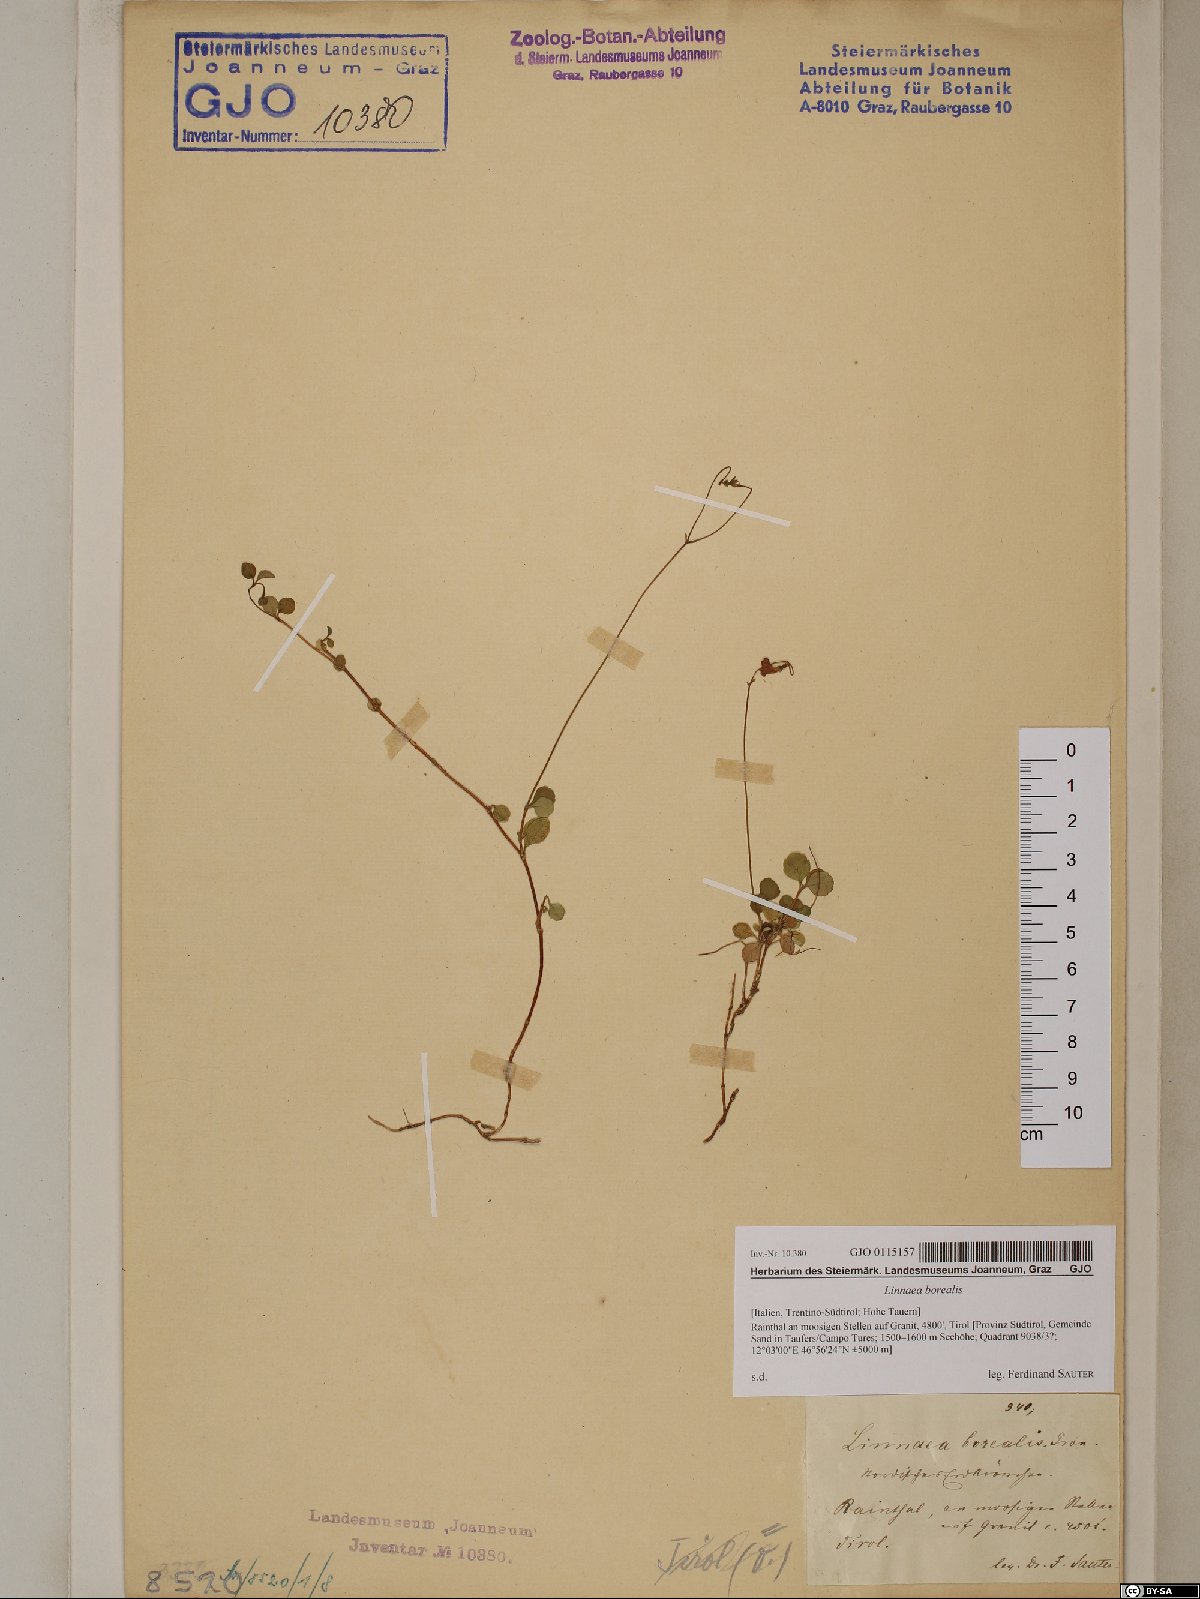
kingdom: Plantae
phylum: Tracheophyta
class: Magnoliopsida
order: Dipsacales
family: Caprifoliaceae
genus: Linnaea
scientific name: Linnaea borealis
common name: Twinflower
